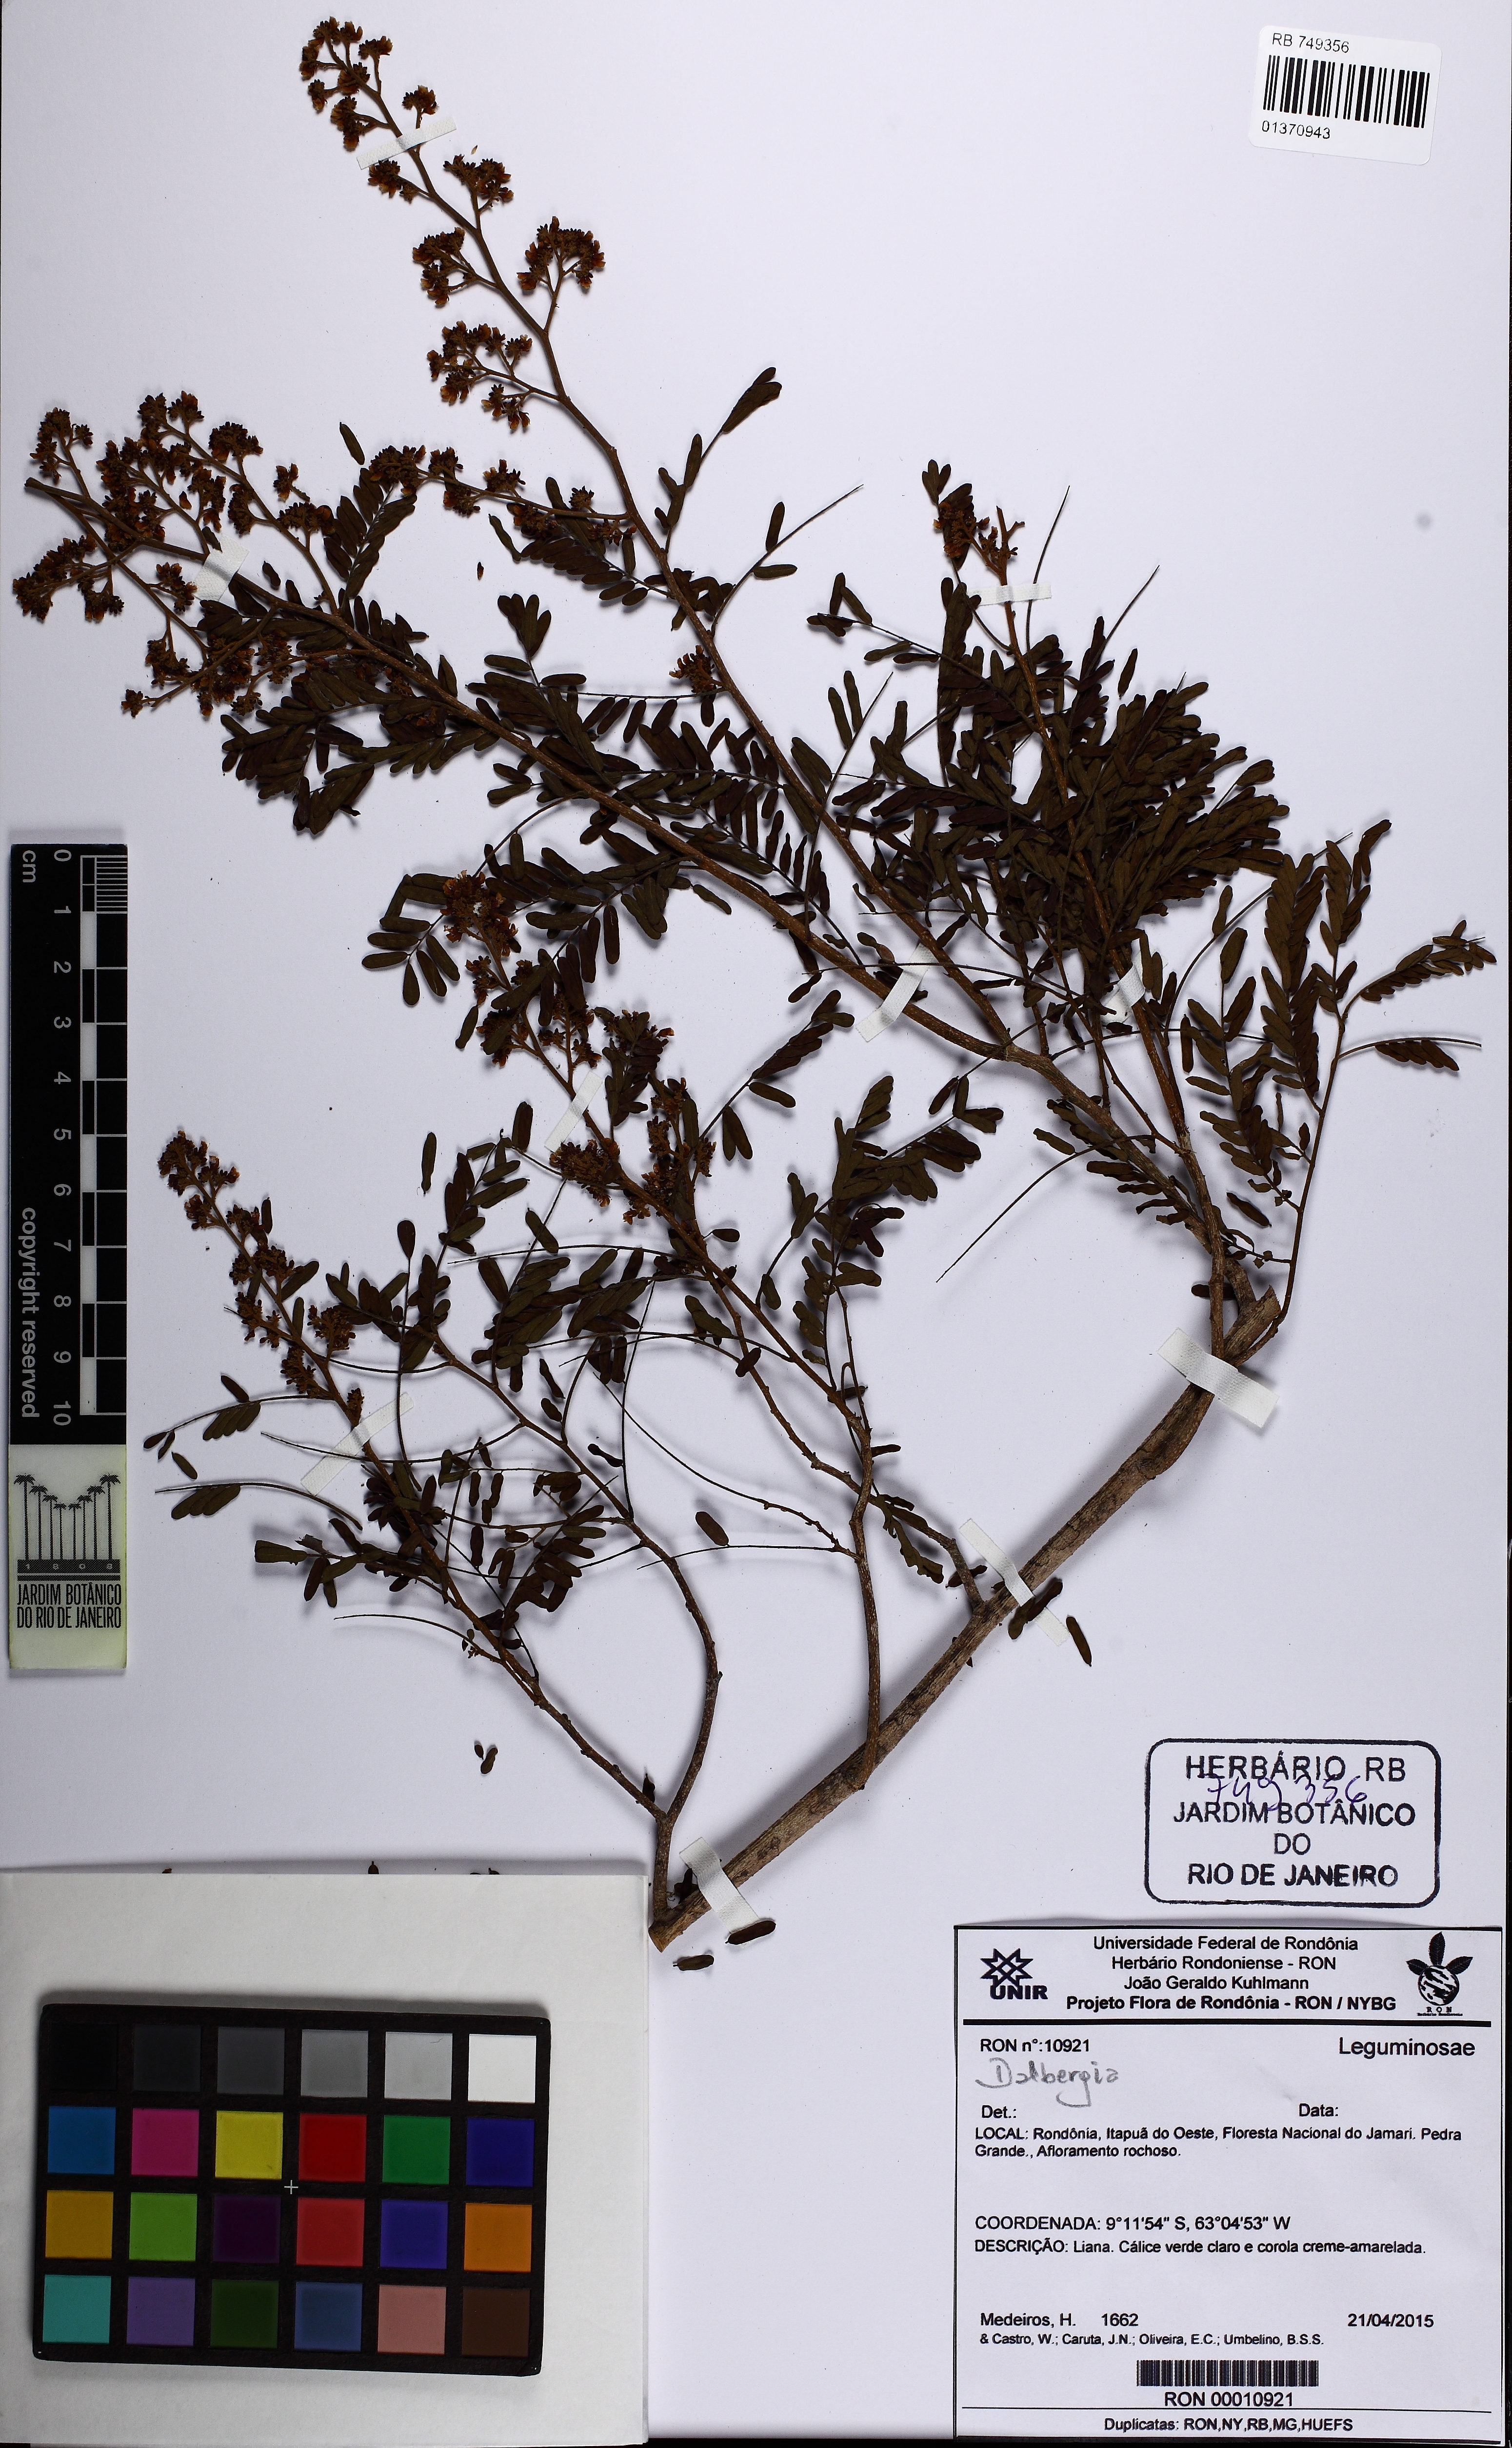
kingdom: Plantae
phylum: Tracheophyta
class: Magnoliopsida
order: Fabales
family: Fabaceae
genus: Dalbergia
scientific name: Dalbergia
